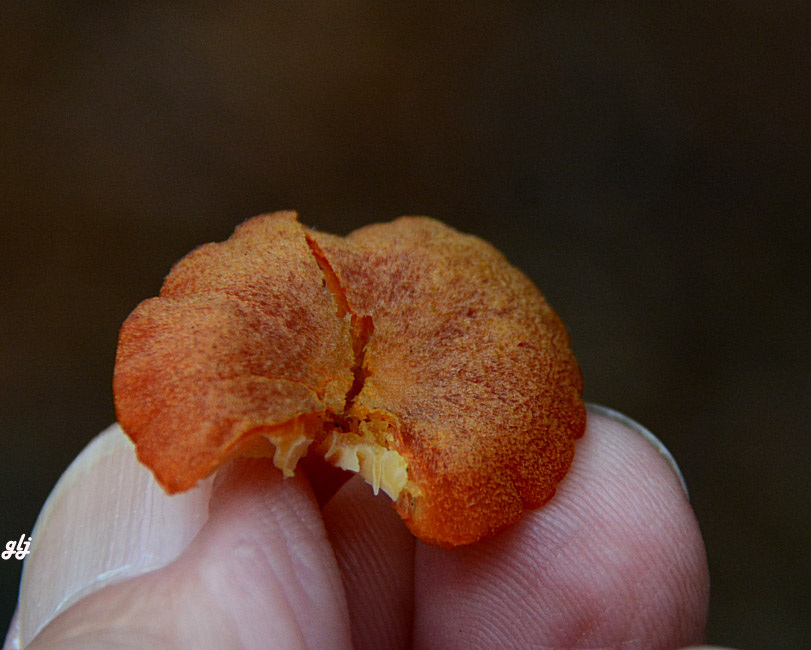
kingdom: Fungi
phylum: Basidiomycota
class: Agaricomycetes
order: Agaricales
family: Hygrophoraceae
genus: Hygrocybe
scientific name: Hygrocybe coccineocrenata
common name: tørvemos-vokshat
